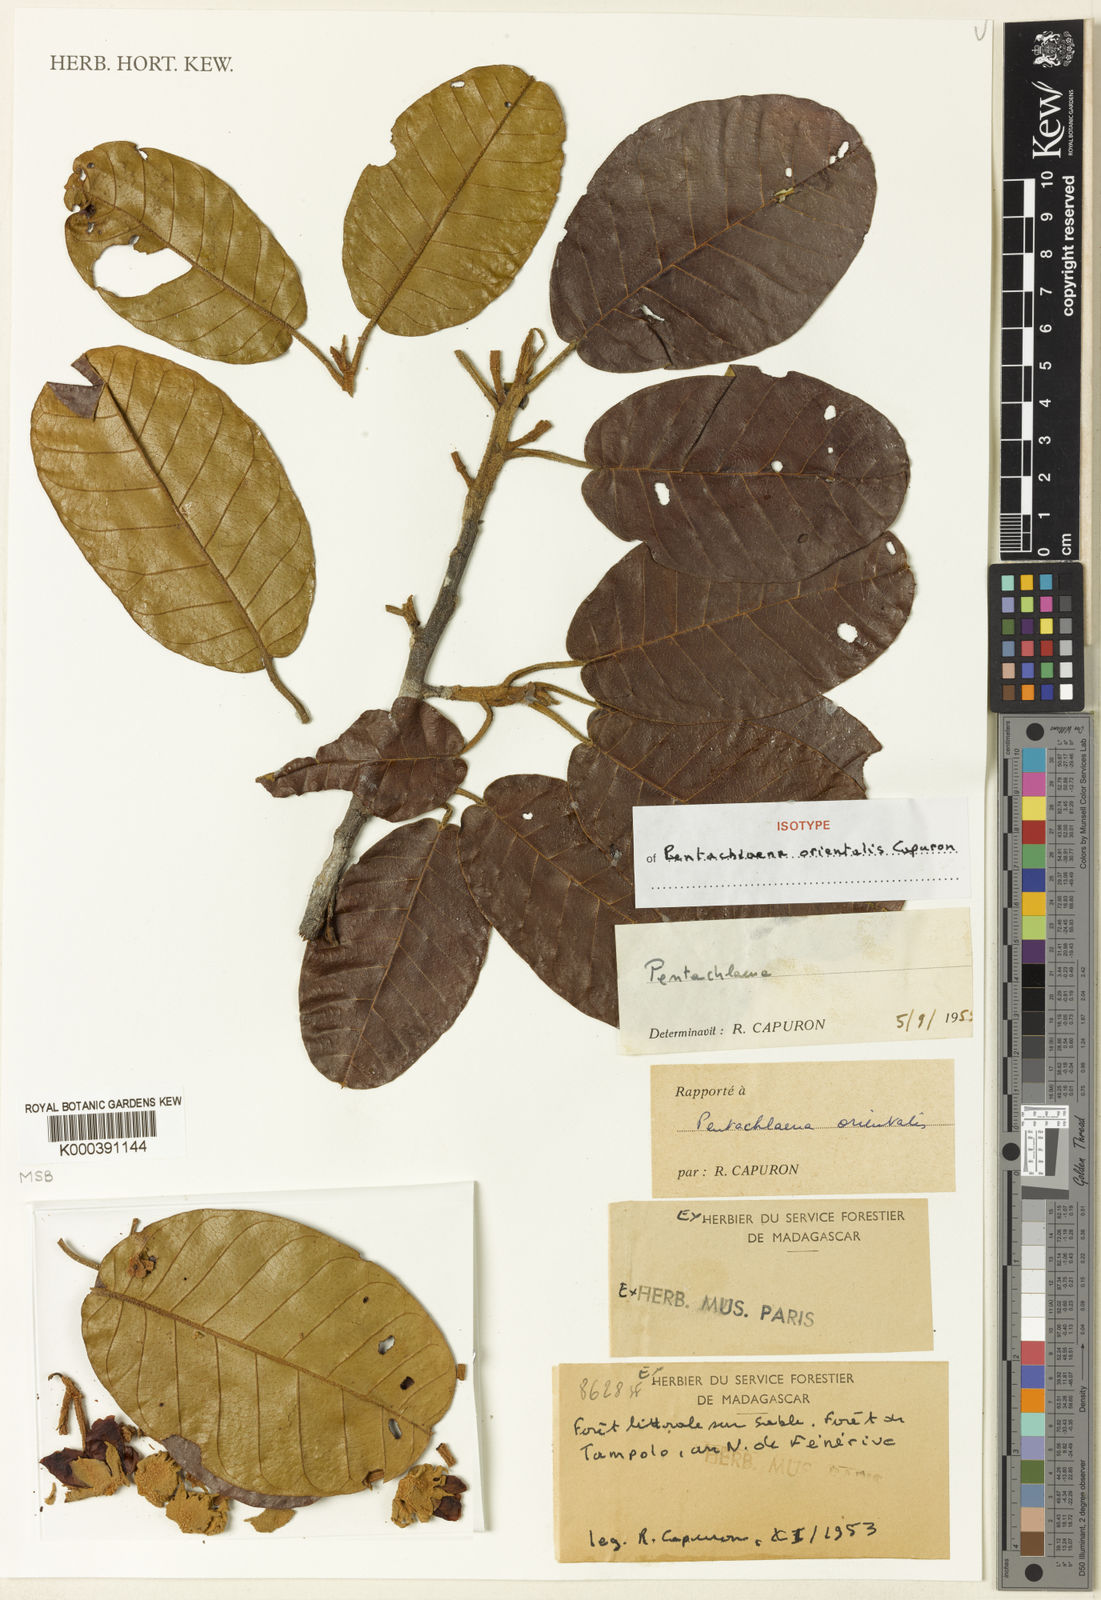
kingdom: Plantae
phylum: Tracheophyta
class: Magnoliopsida
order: Malvales
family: Sarcolaenaceae
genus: Pentachlaena
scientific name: Pentachlaena orientalis
